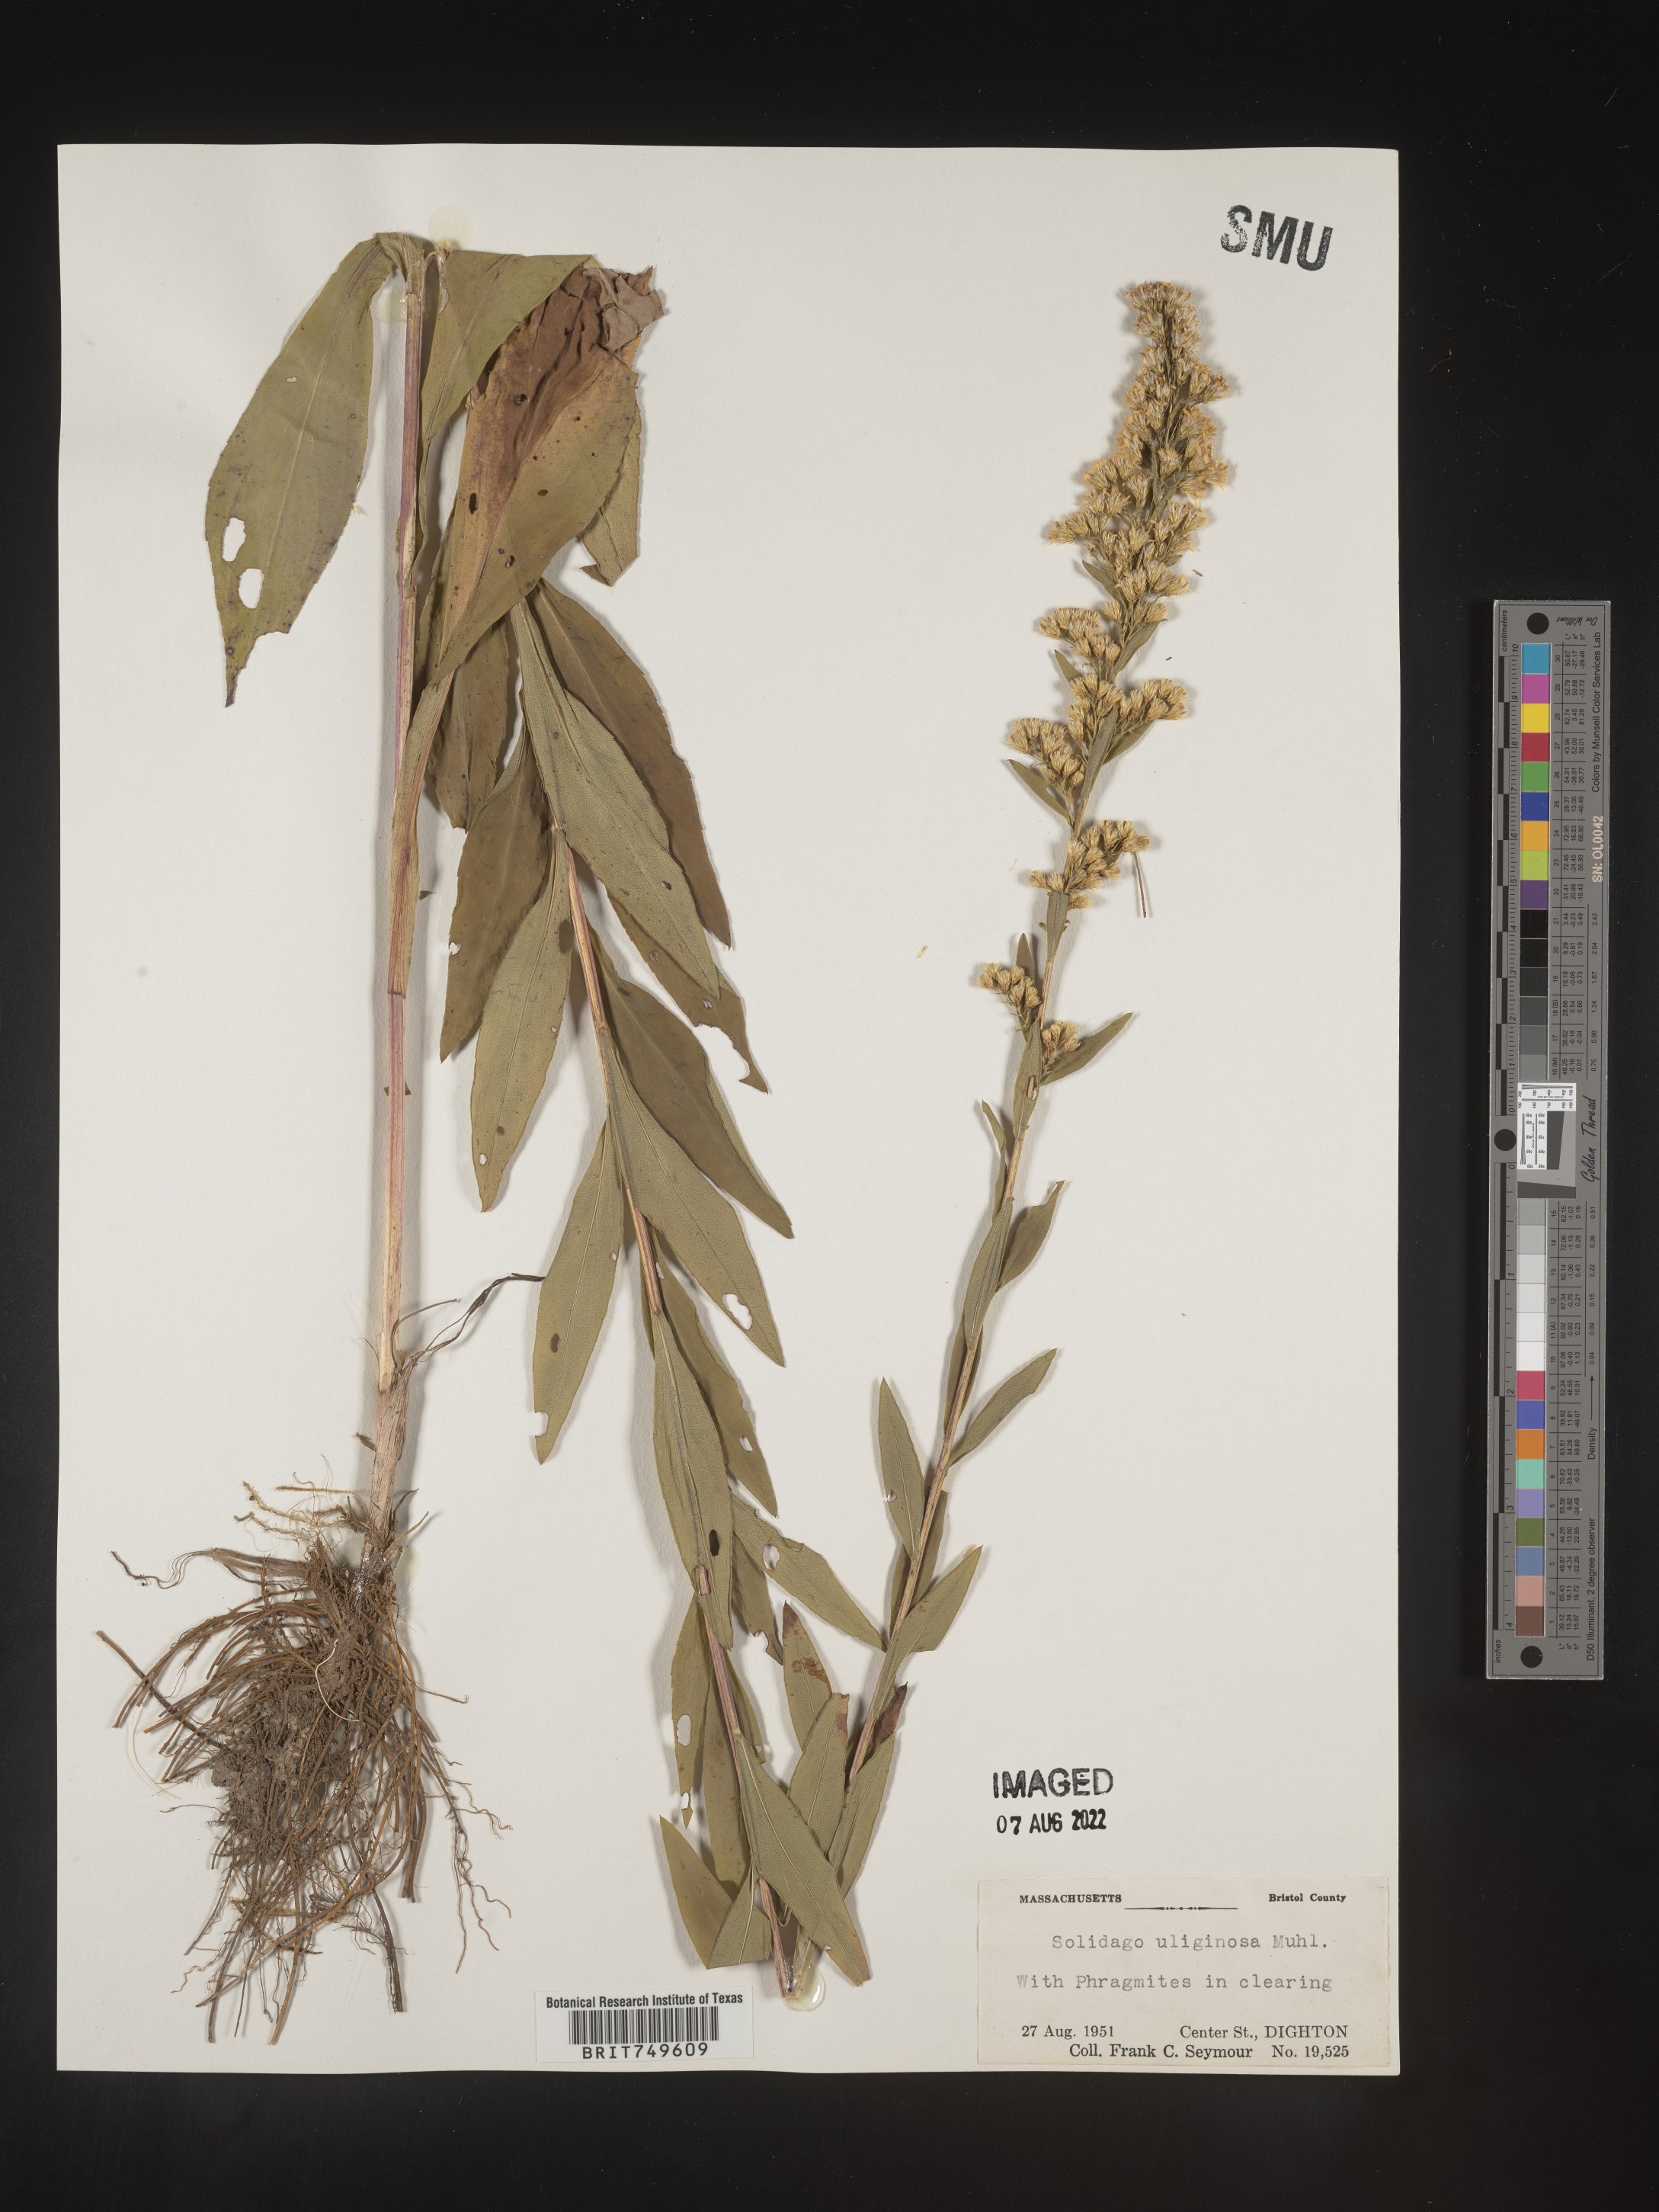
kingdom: Plantae
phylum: Tracheophyta
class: Magnoliopsida
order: Asterales
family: Asteraceae
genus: Solidago
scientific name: Solidago uliginosa
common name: Bog goldenrod
